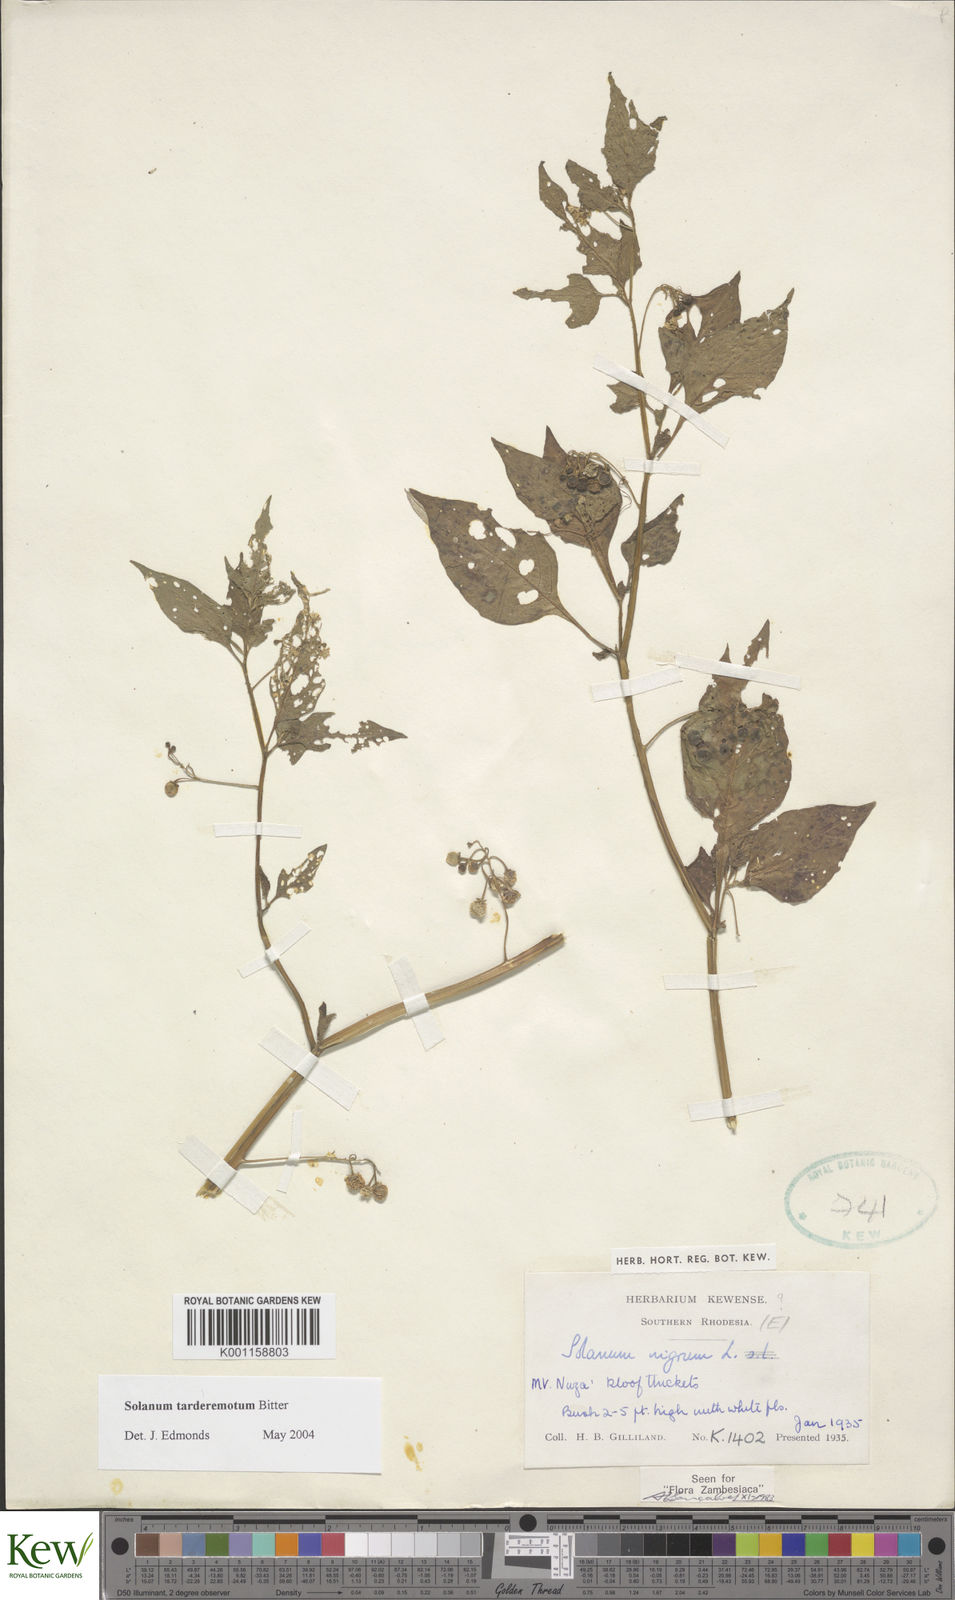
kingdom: Plantae
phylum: Tracheophyta
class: Magnoliopsida
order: Solanales
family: Solanaceae
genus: Solanum
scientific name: Solanum tarderemotum
